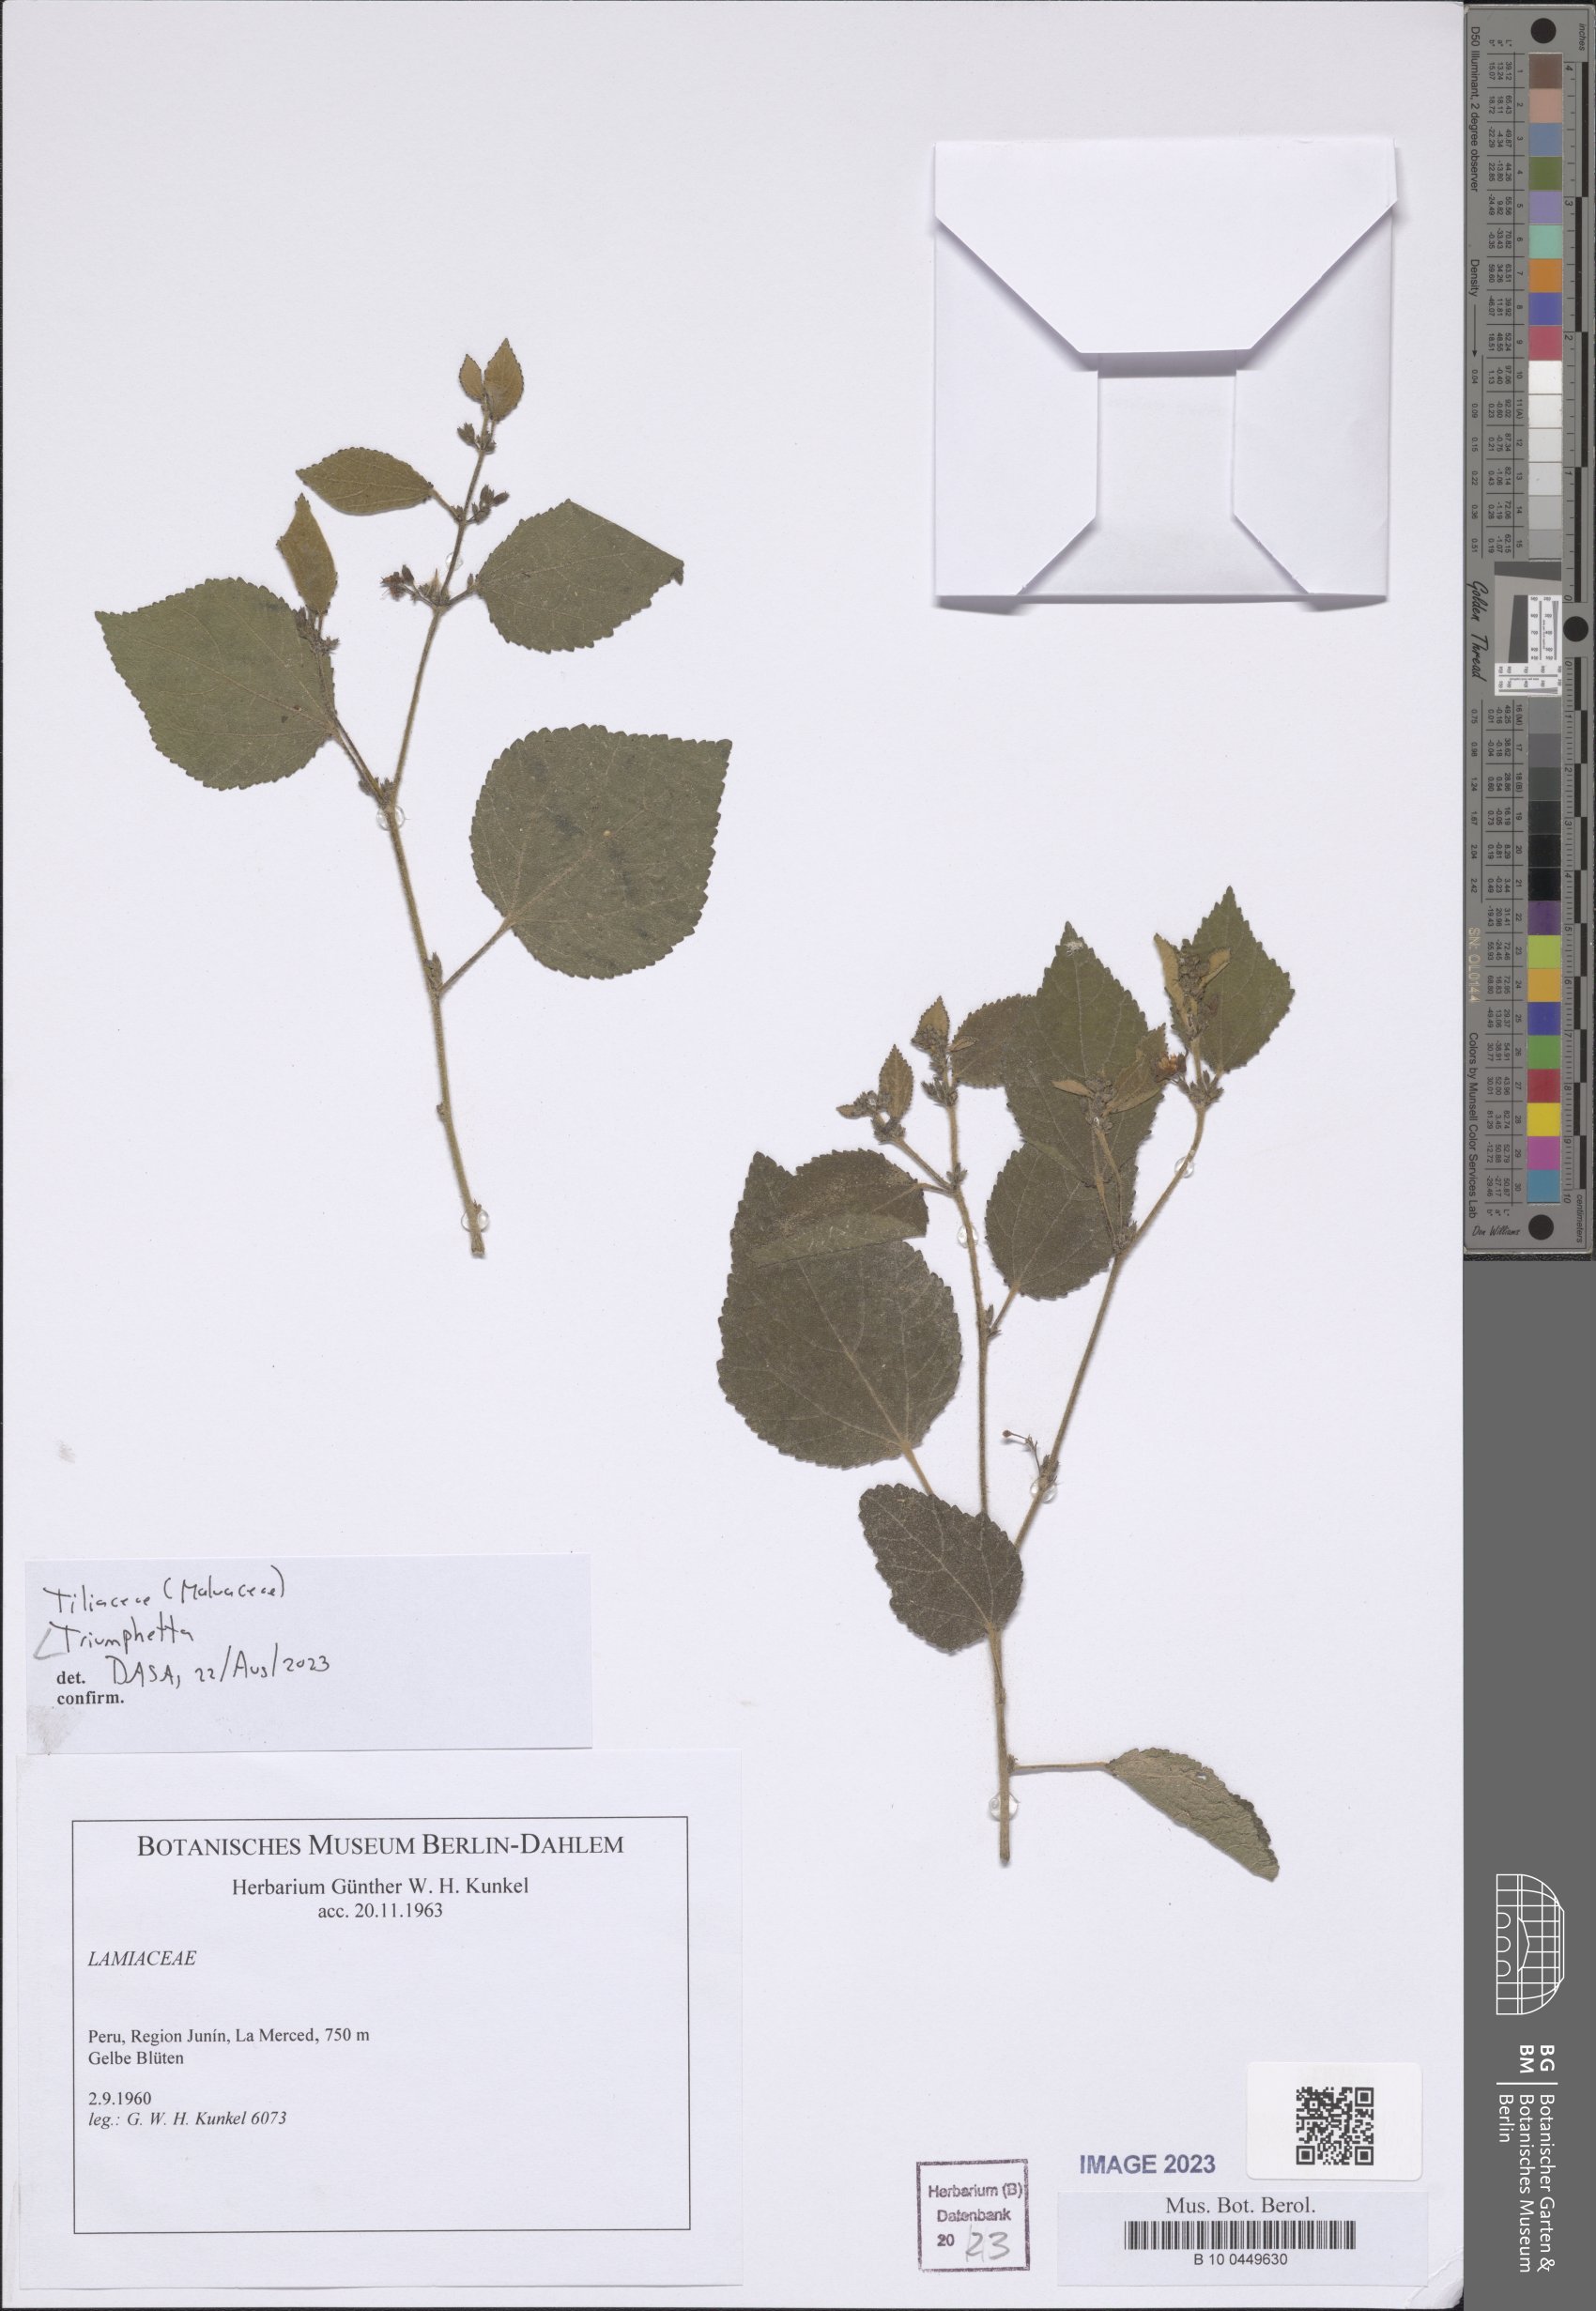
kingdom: Plantae
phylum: Tracheophyta
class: Magnoliopsida
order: Malvales
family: Malvaceae
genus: Triumfetta
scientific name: Triumfetta
